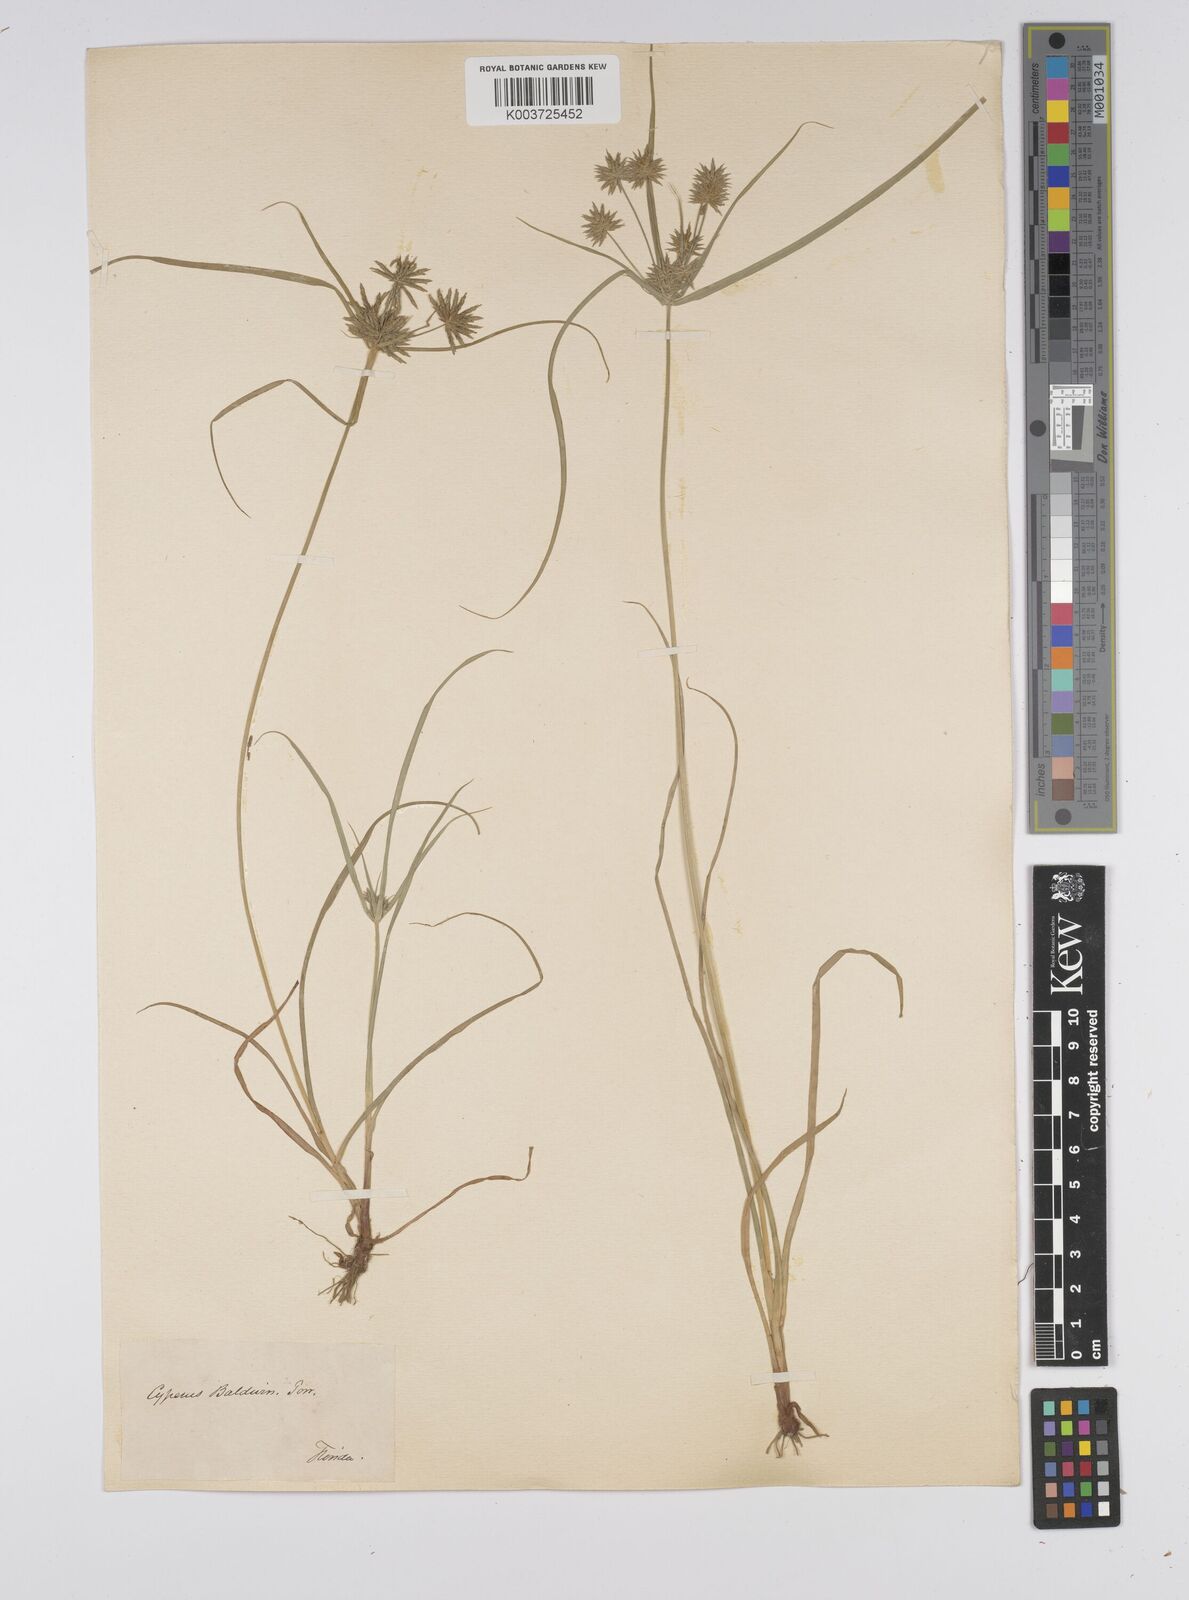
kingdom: Plantae
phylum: Tracheophyta
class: Liliopsida
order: Poales
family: Cyperaceae
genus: Cyperus
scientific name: Cyperus luzulae
